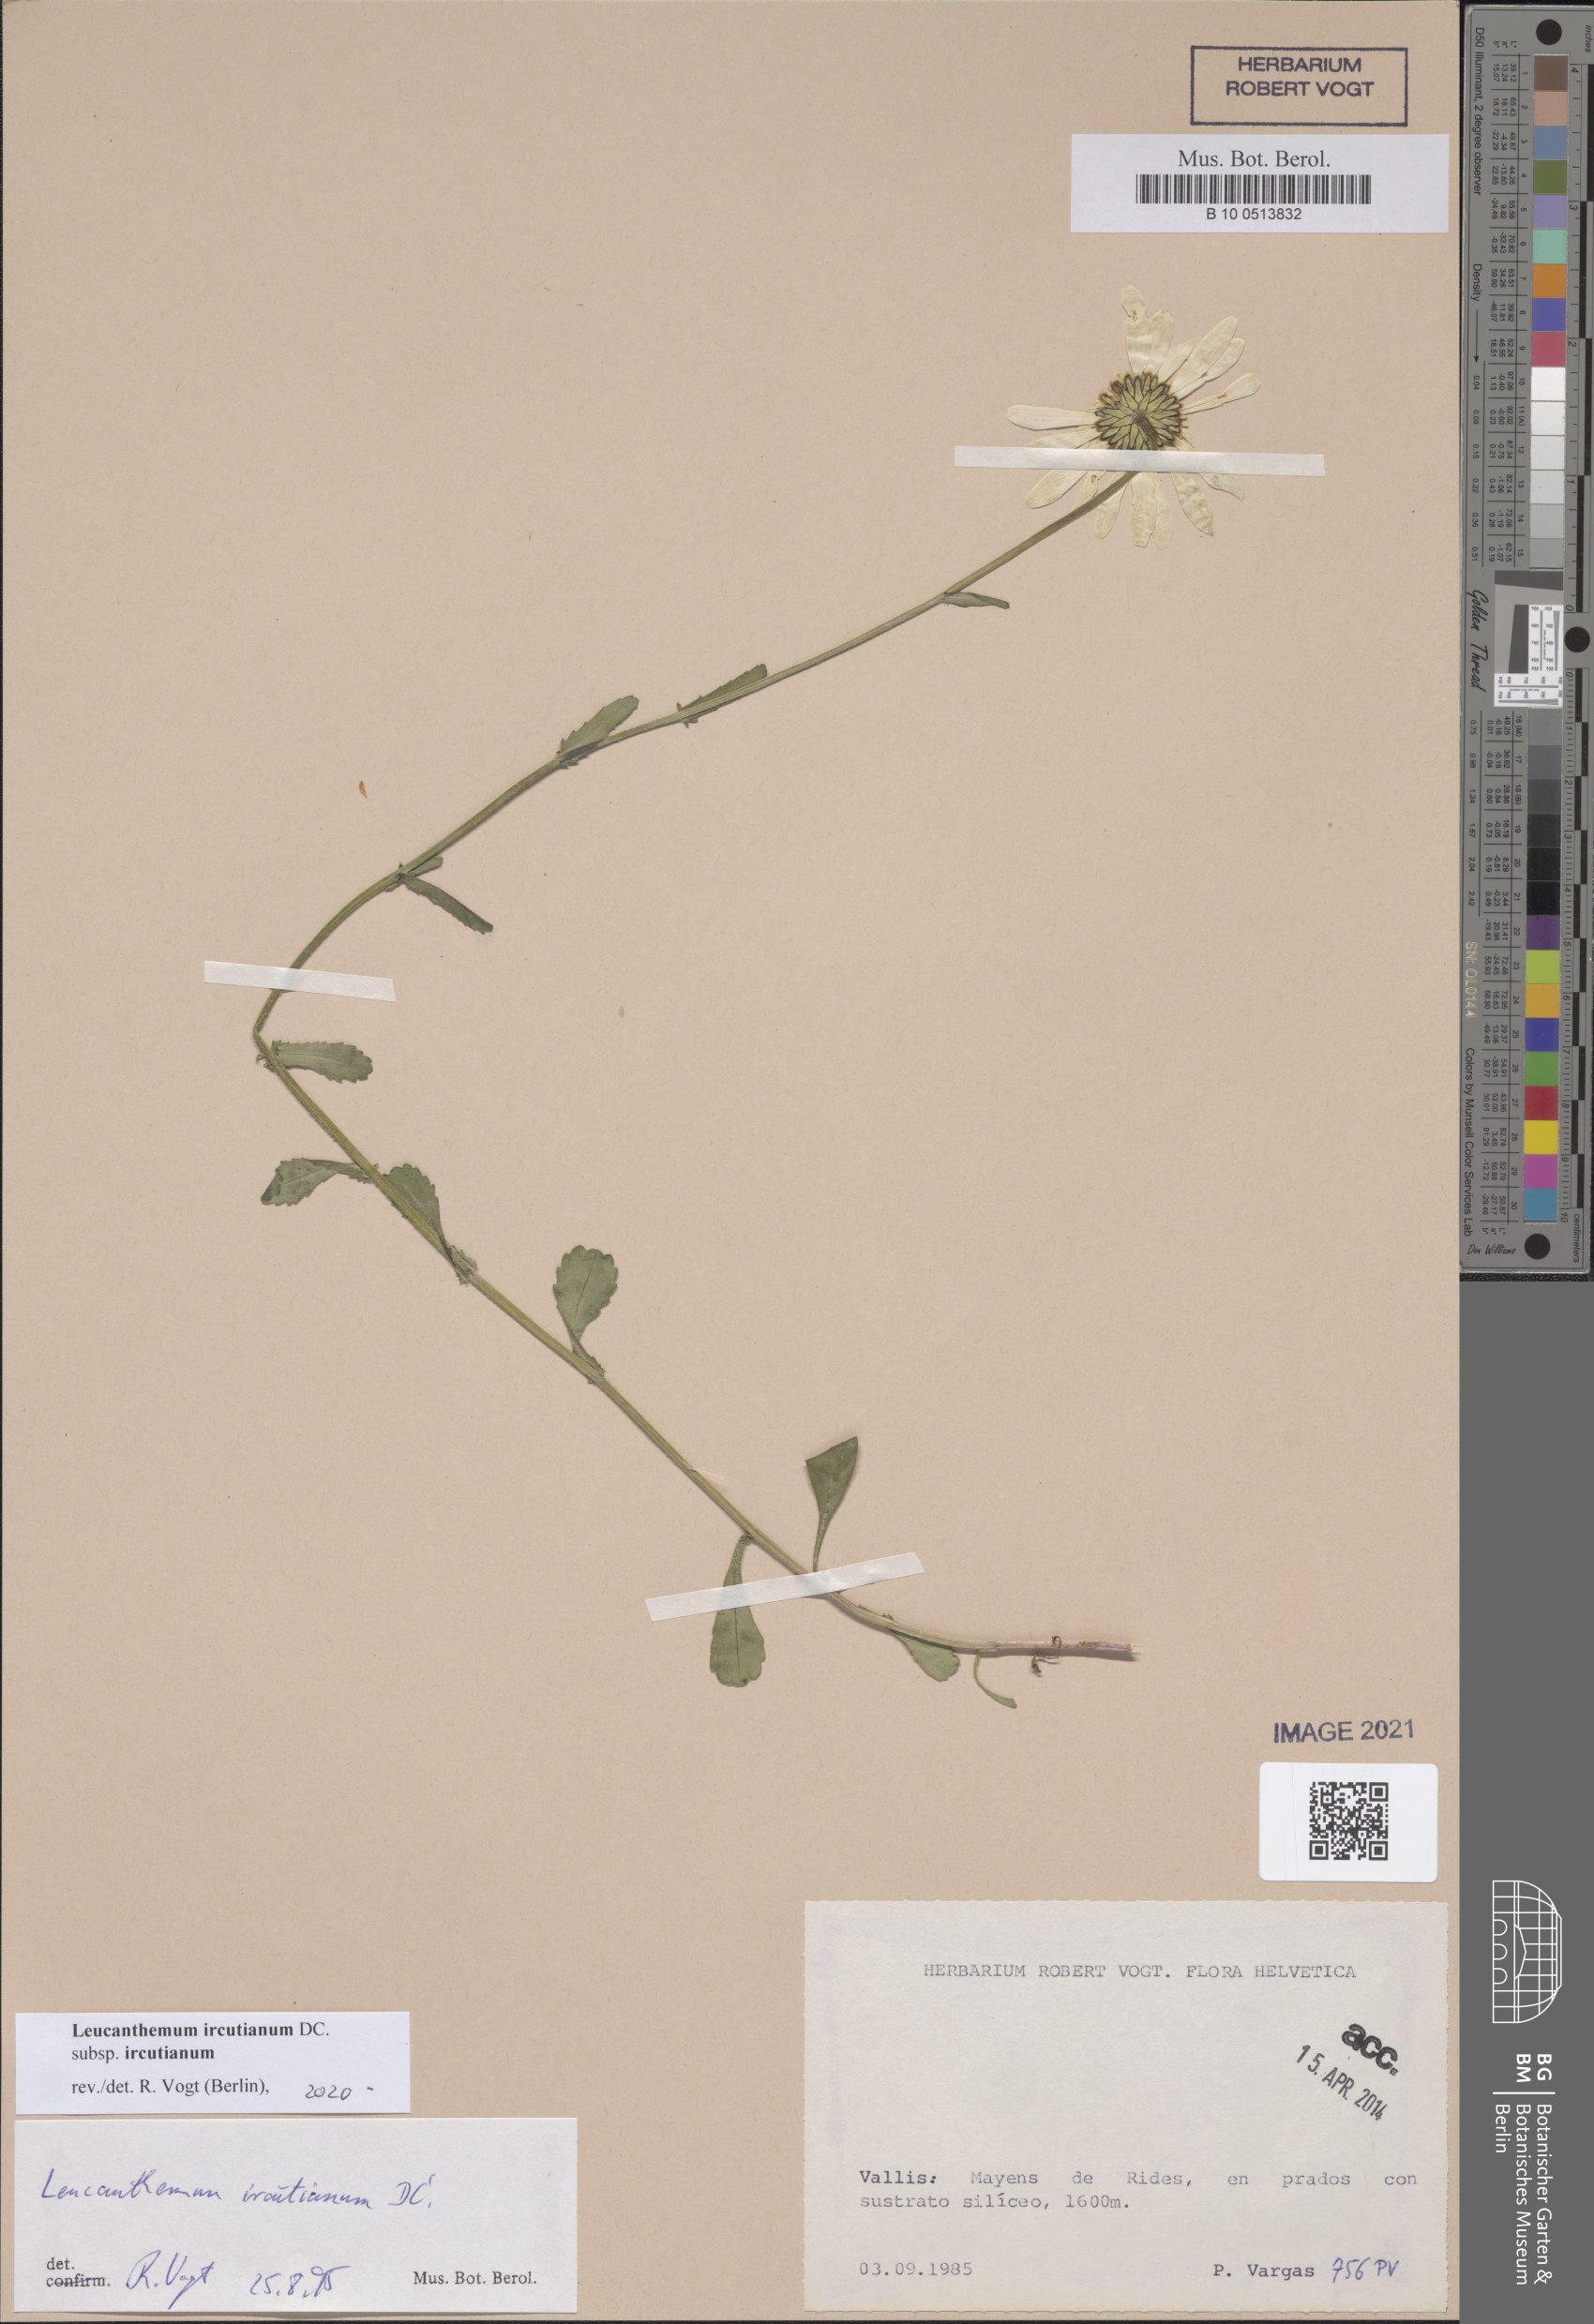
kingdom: Plantae
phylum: Tracheophyta
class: Magnoliopsida
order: Asterales
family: Asteraceae
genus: Leucanthemum
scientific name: Leucanthemum ircutianum
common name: Daisy
